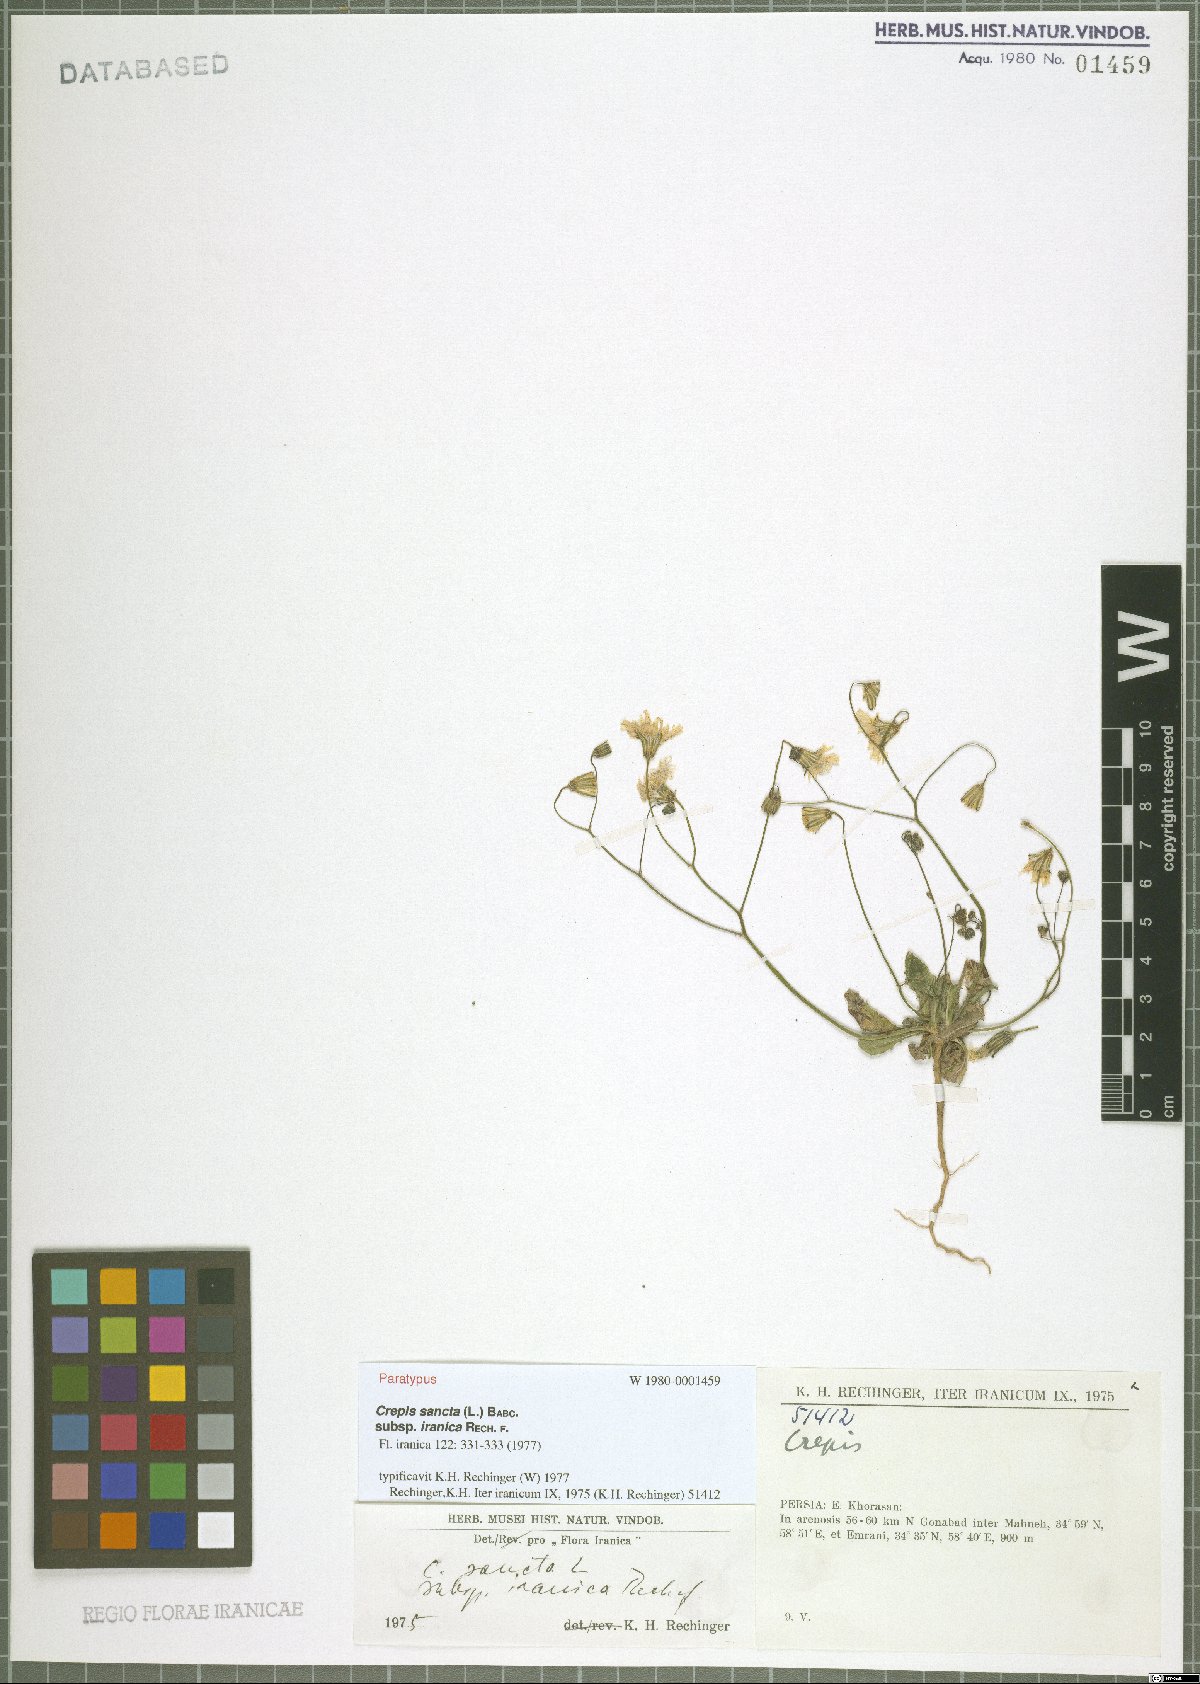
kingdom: Plantae
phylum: Tracheophyta
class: Magnoliopsida
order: Asterales
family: Asteraceae
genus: Crepis
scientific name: Crepis sancta
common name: Hawk's-beard
